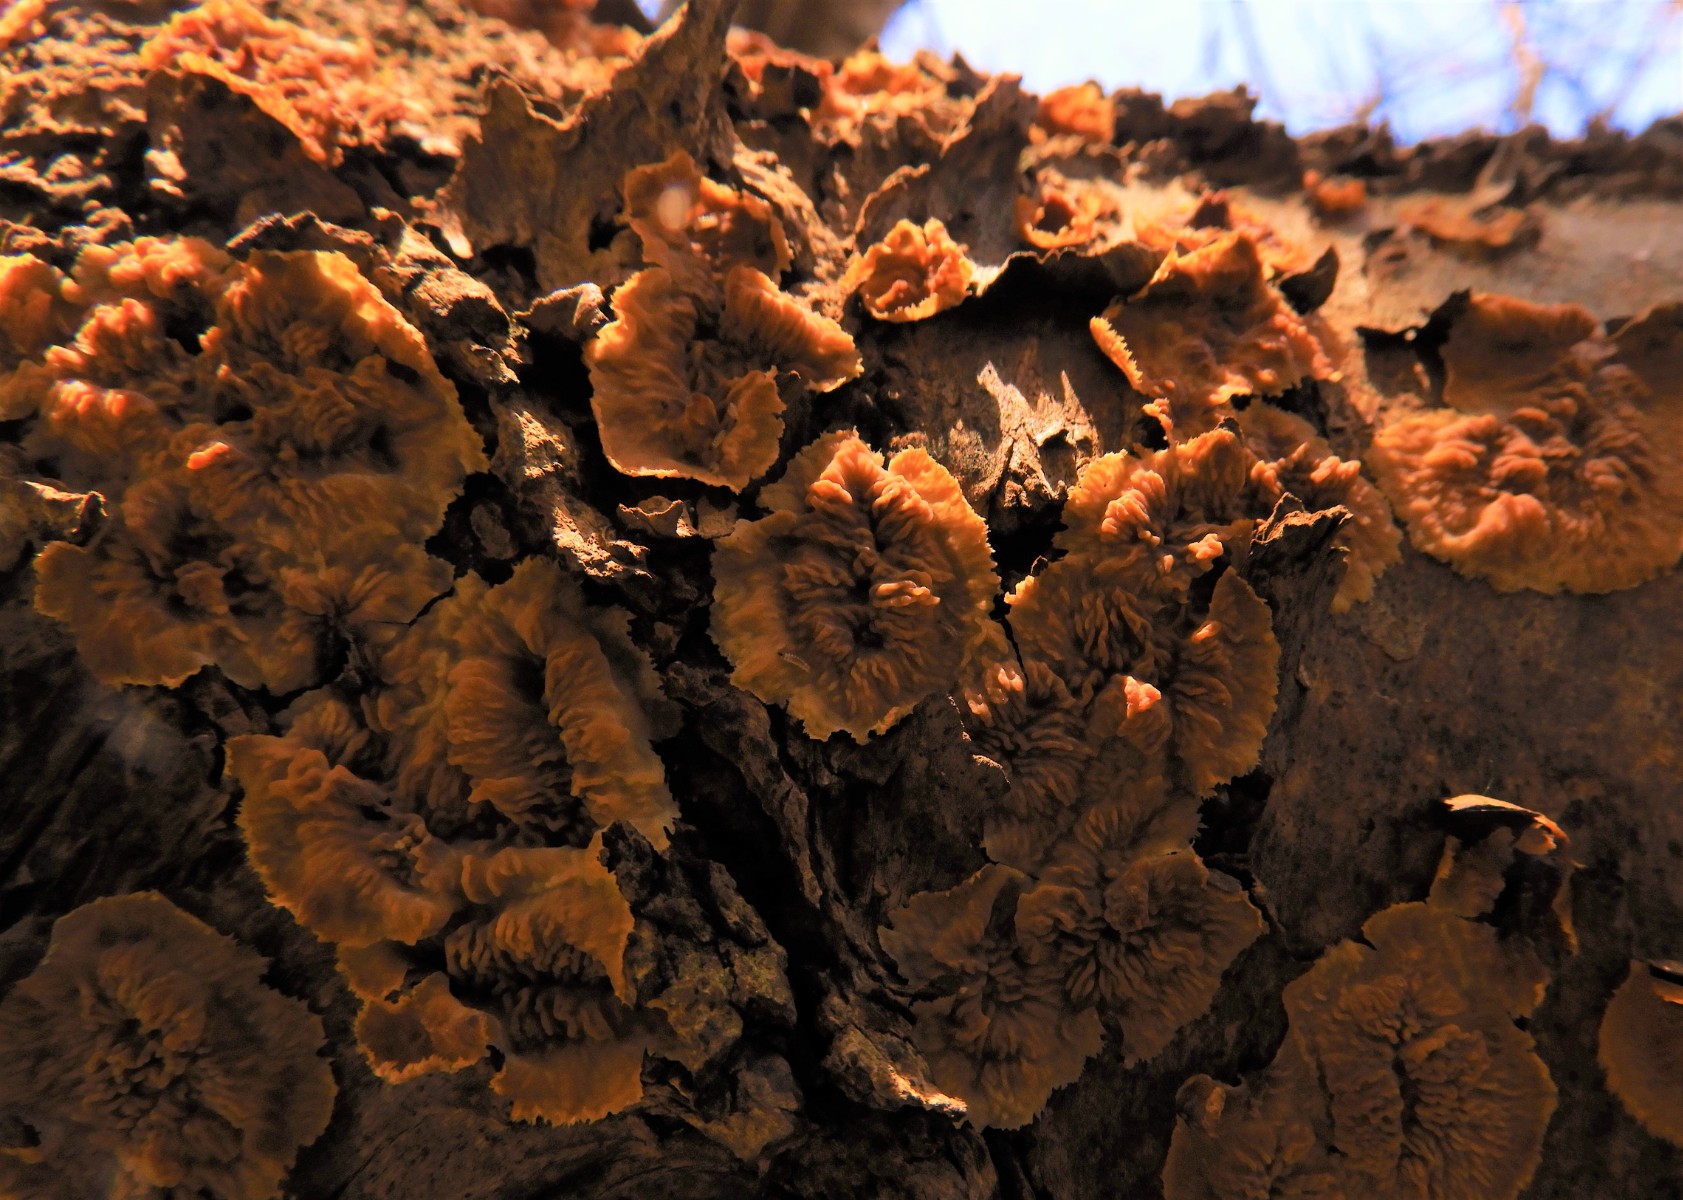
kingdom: Fungi
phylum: Basidiomycota
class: Agaricomycetes
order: Polyporales
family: Meruliaceae
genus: Phlebia
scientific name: Phlebia radiata
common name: stråle-åresvamp
